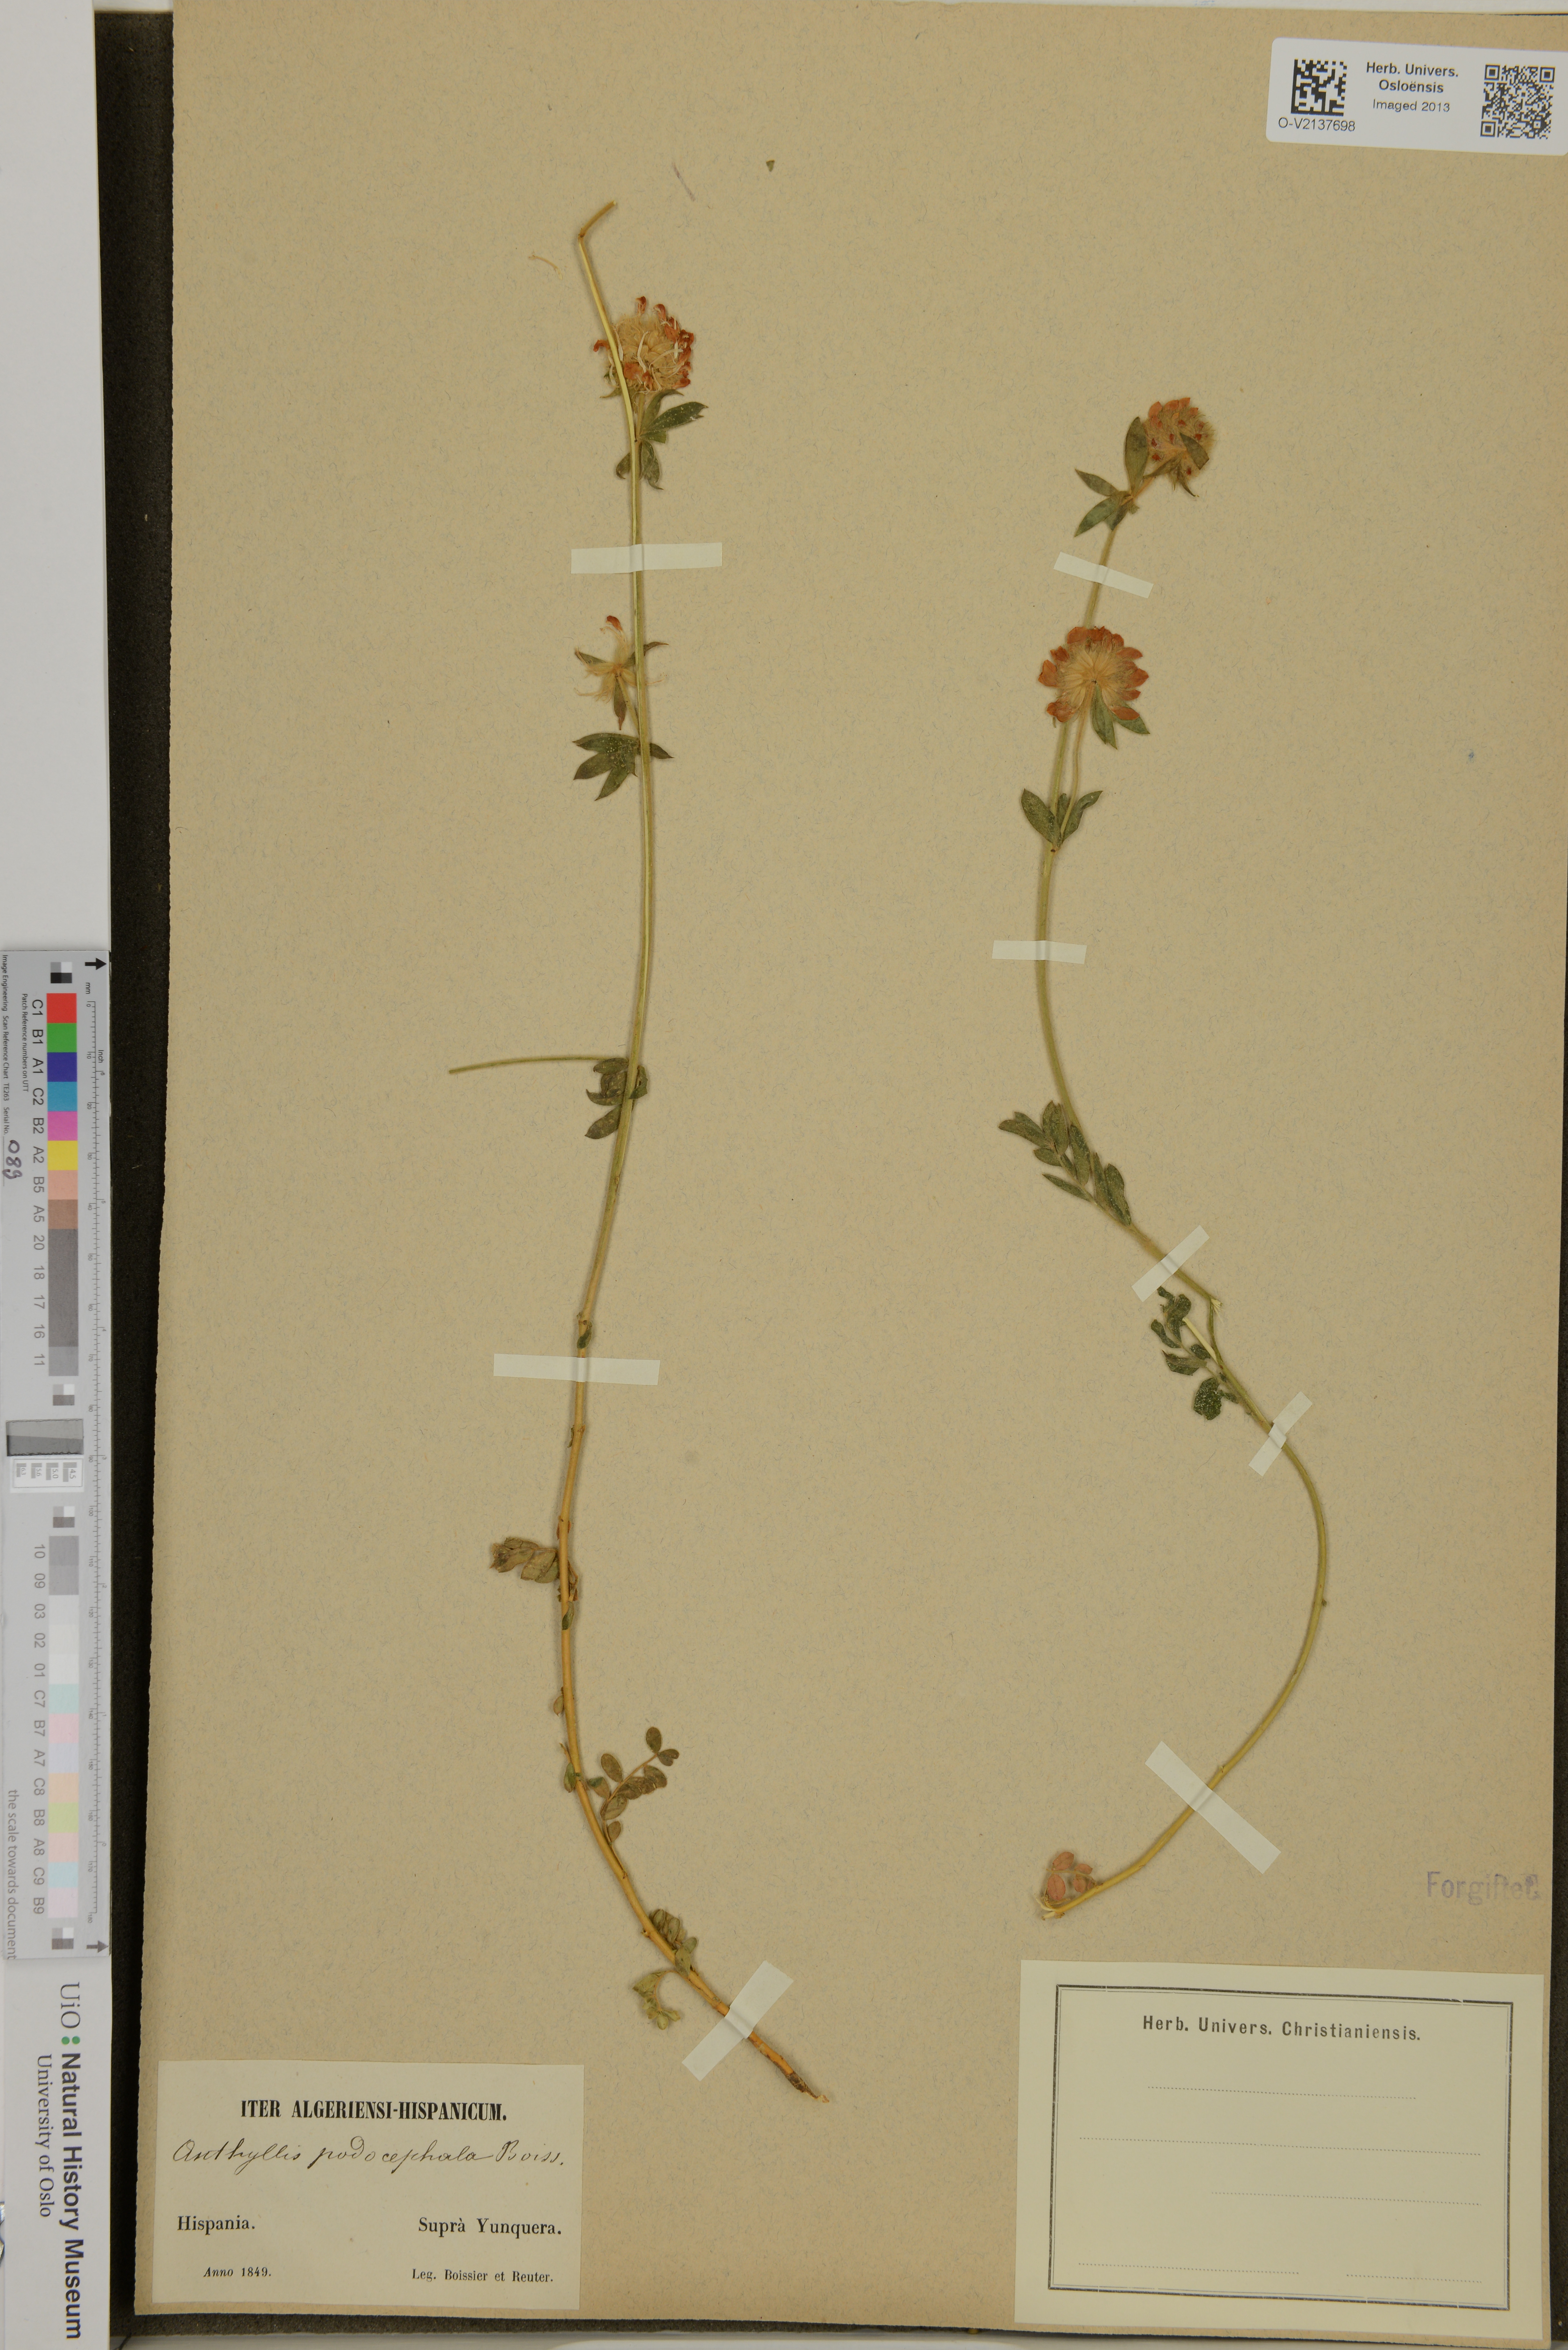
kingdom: Plantae
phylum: Tracheophyta
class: Magnoliopsida
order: Fabales
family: Fabaceae
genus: Anthyllis
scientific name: Anthyllis polycephala
